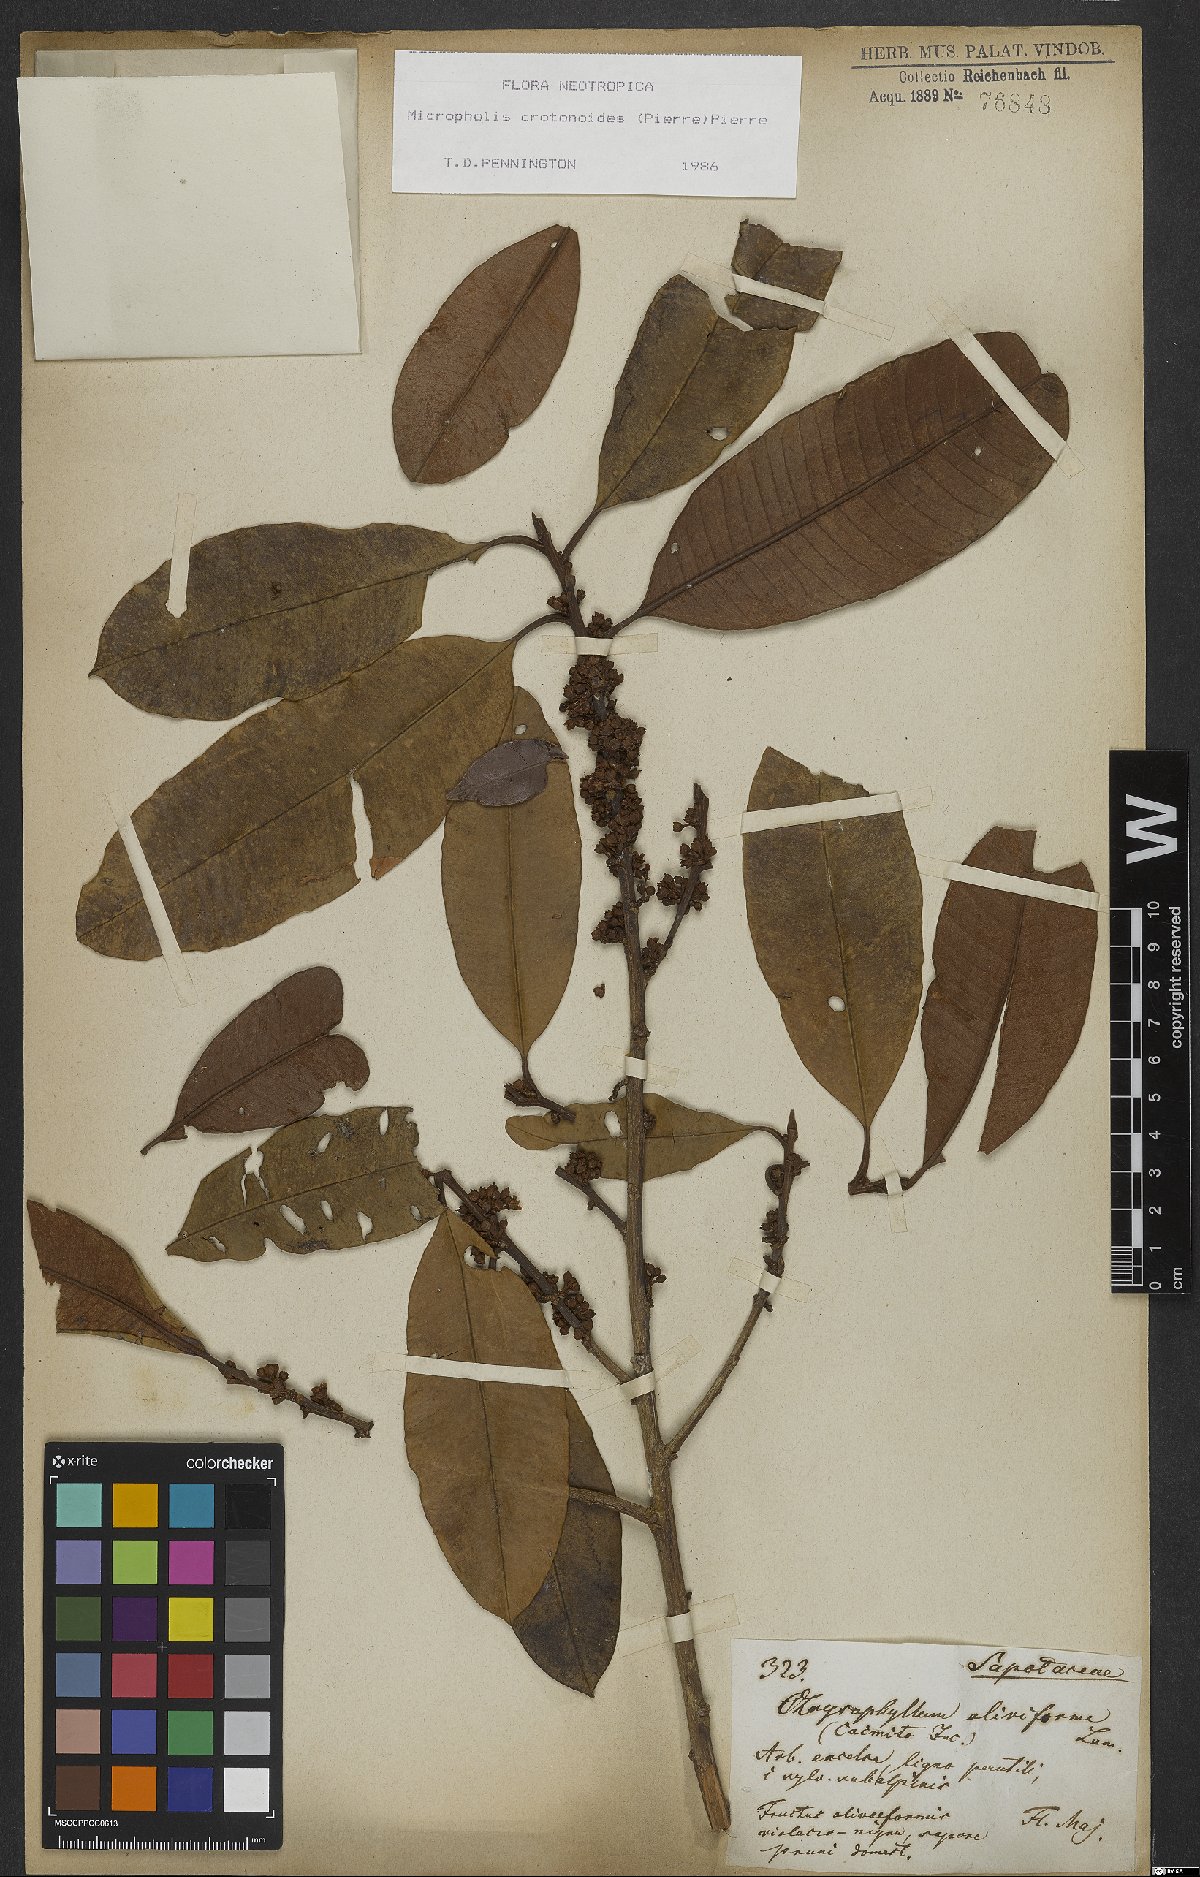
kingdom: Plantae
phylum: Tracheophyta
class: Magnoliopsida
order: Ericales
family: Sapotaceae
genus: Micropholis
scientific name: Micropholis crotonoides
